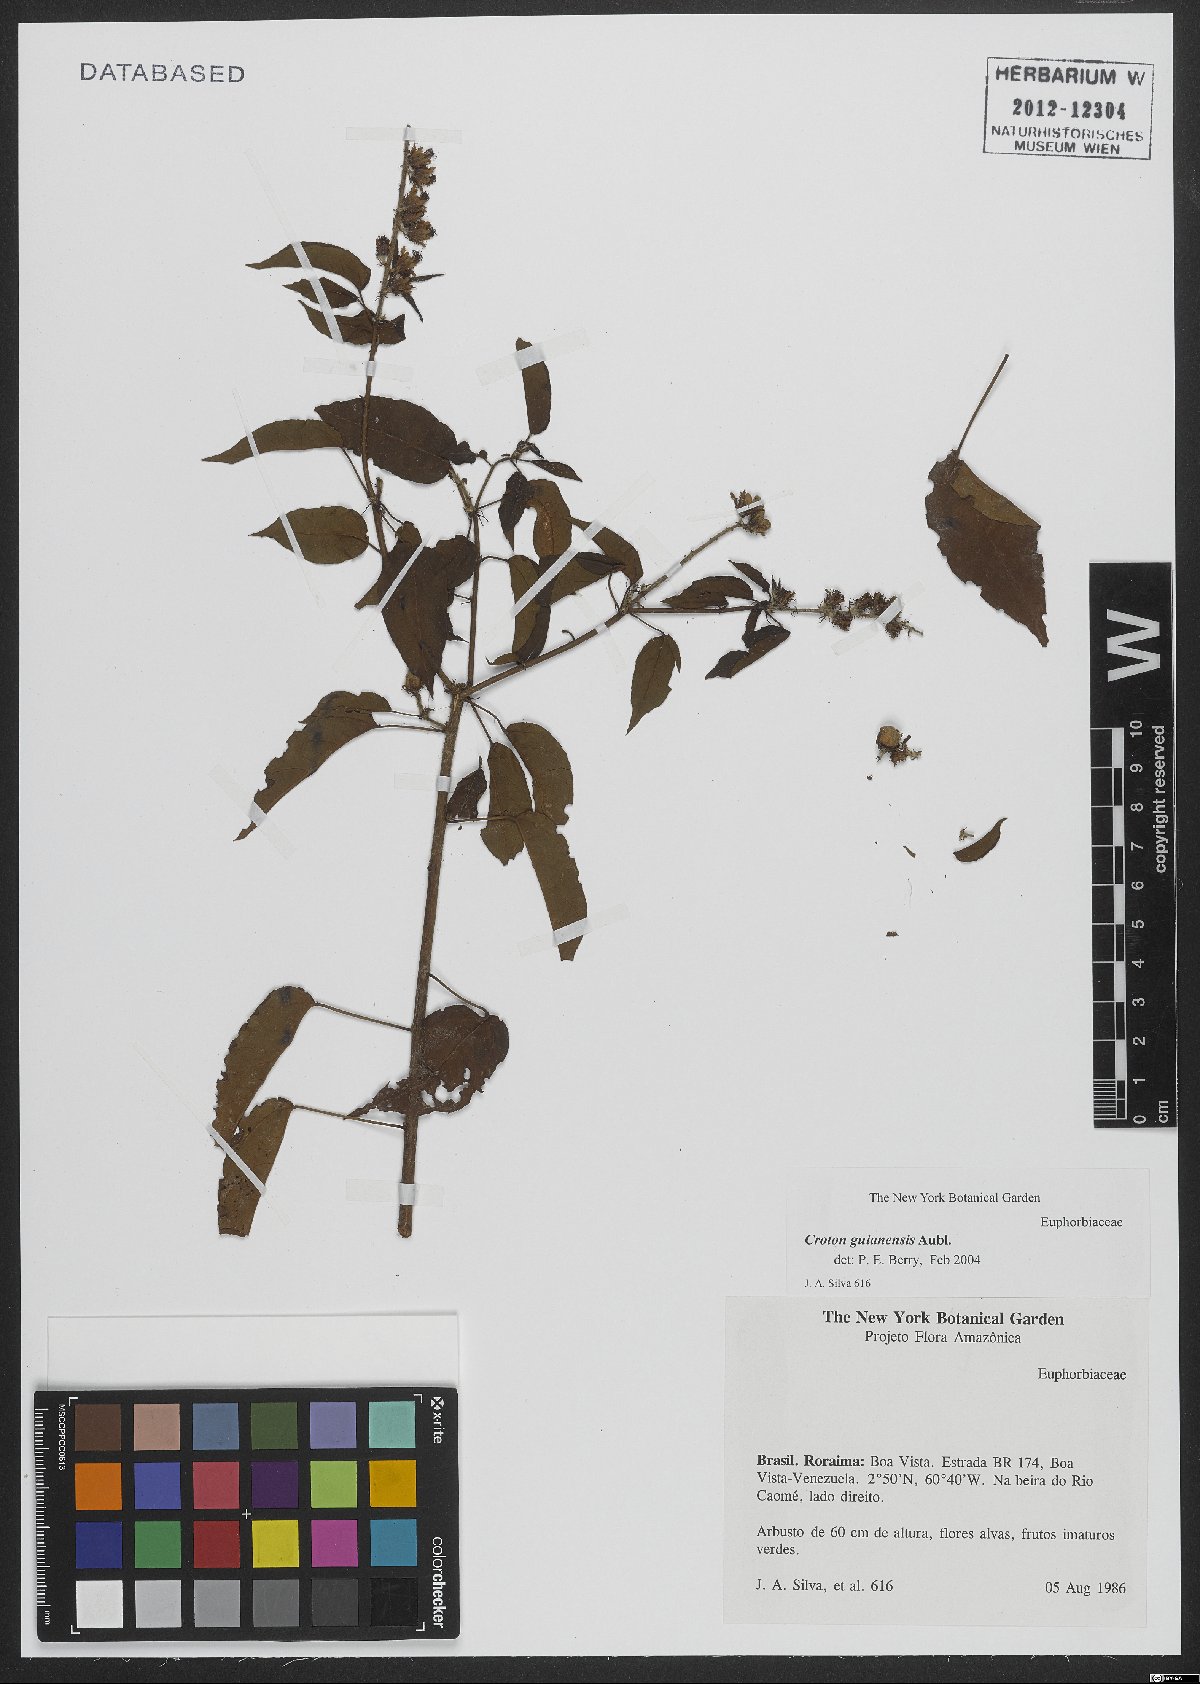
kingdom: Plantae
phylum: Tracheophyta
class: Magnoliopsida
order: Malpighiales
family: Euphorbiaceae
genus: Croton
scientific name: Croton guianensis
